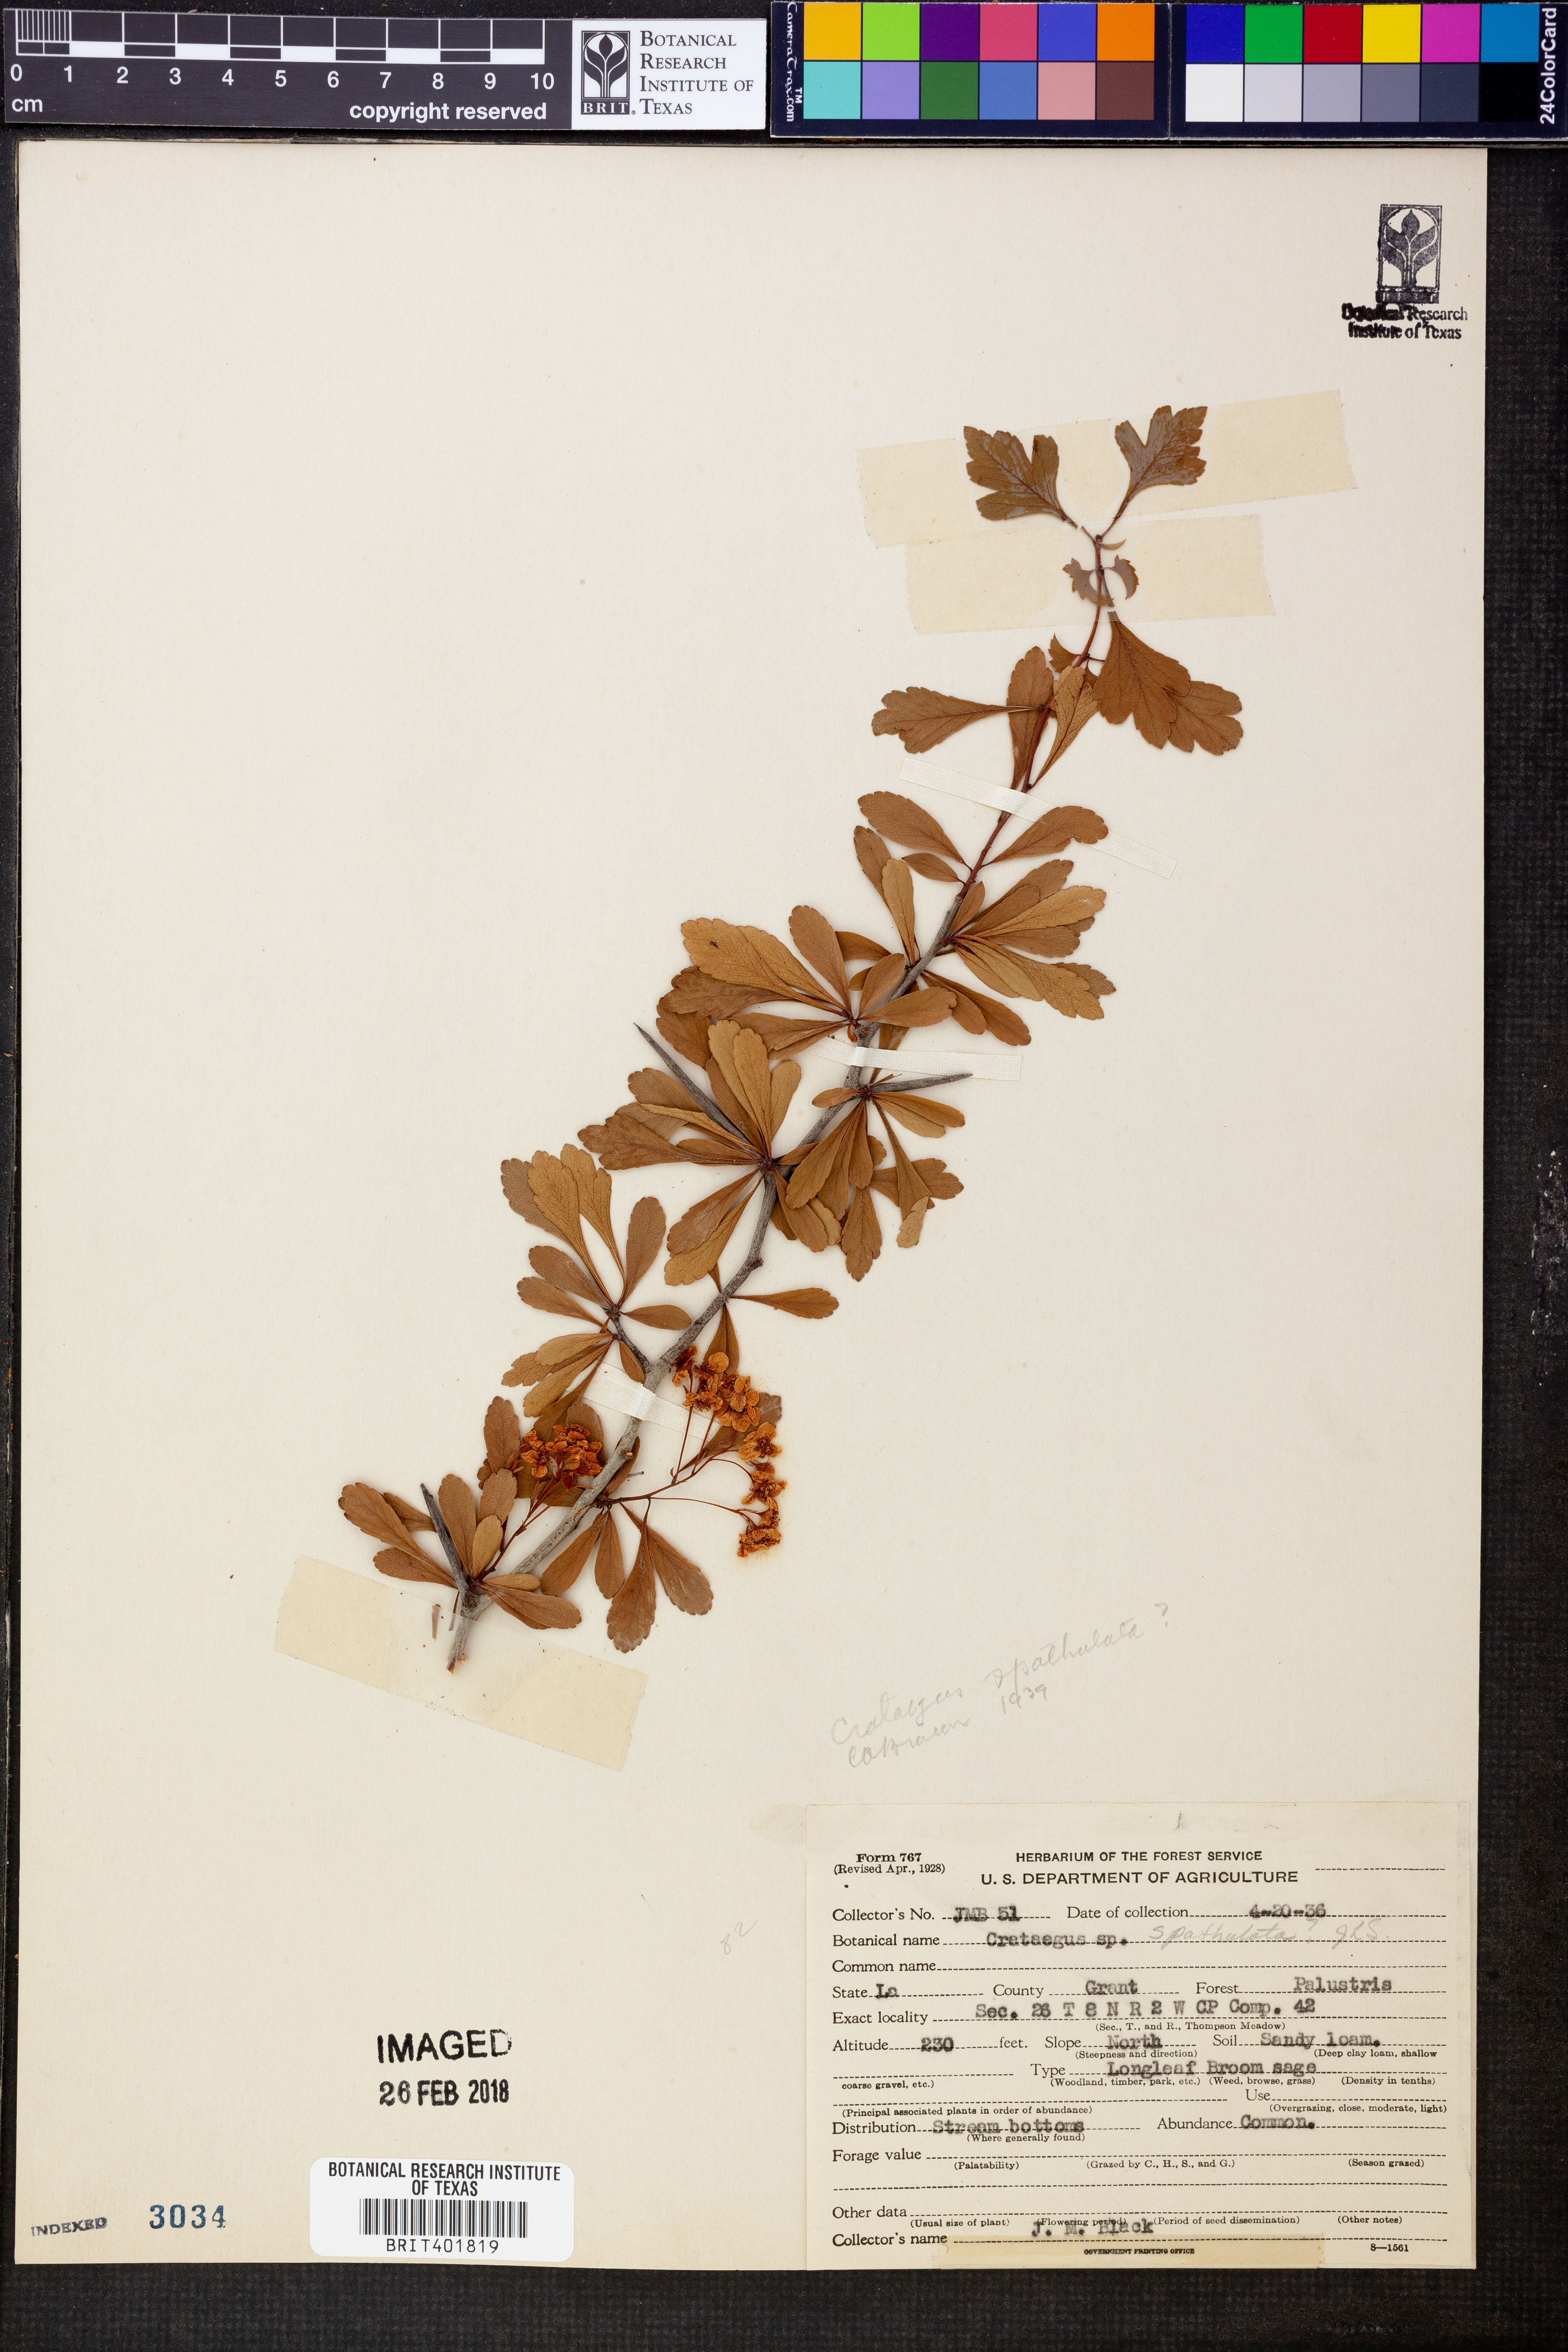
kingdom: Plantae
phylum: Tracheophyta
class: Magnoliopsida
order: Rosales
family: Rosaceae
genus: Crataegus
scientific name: Crataegus spathulata
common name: Littlehip hawthorn
